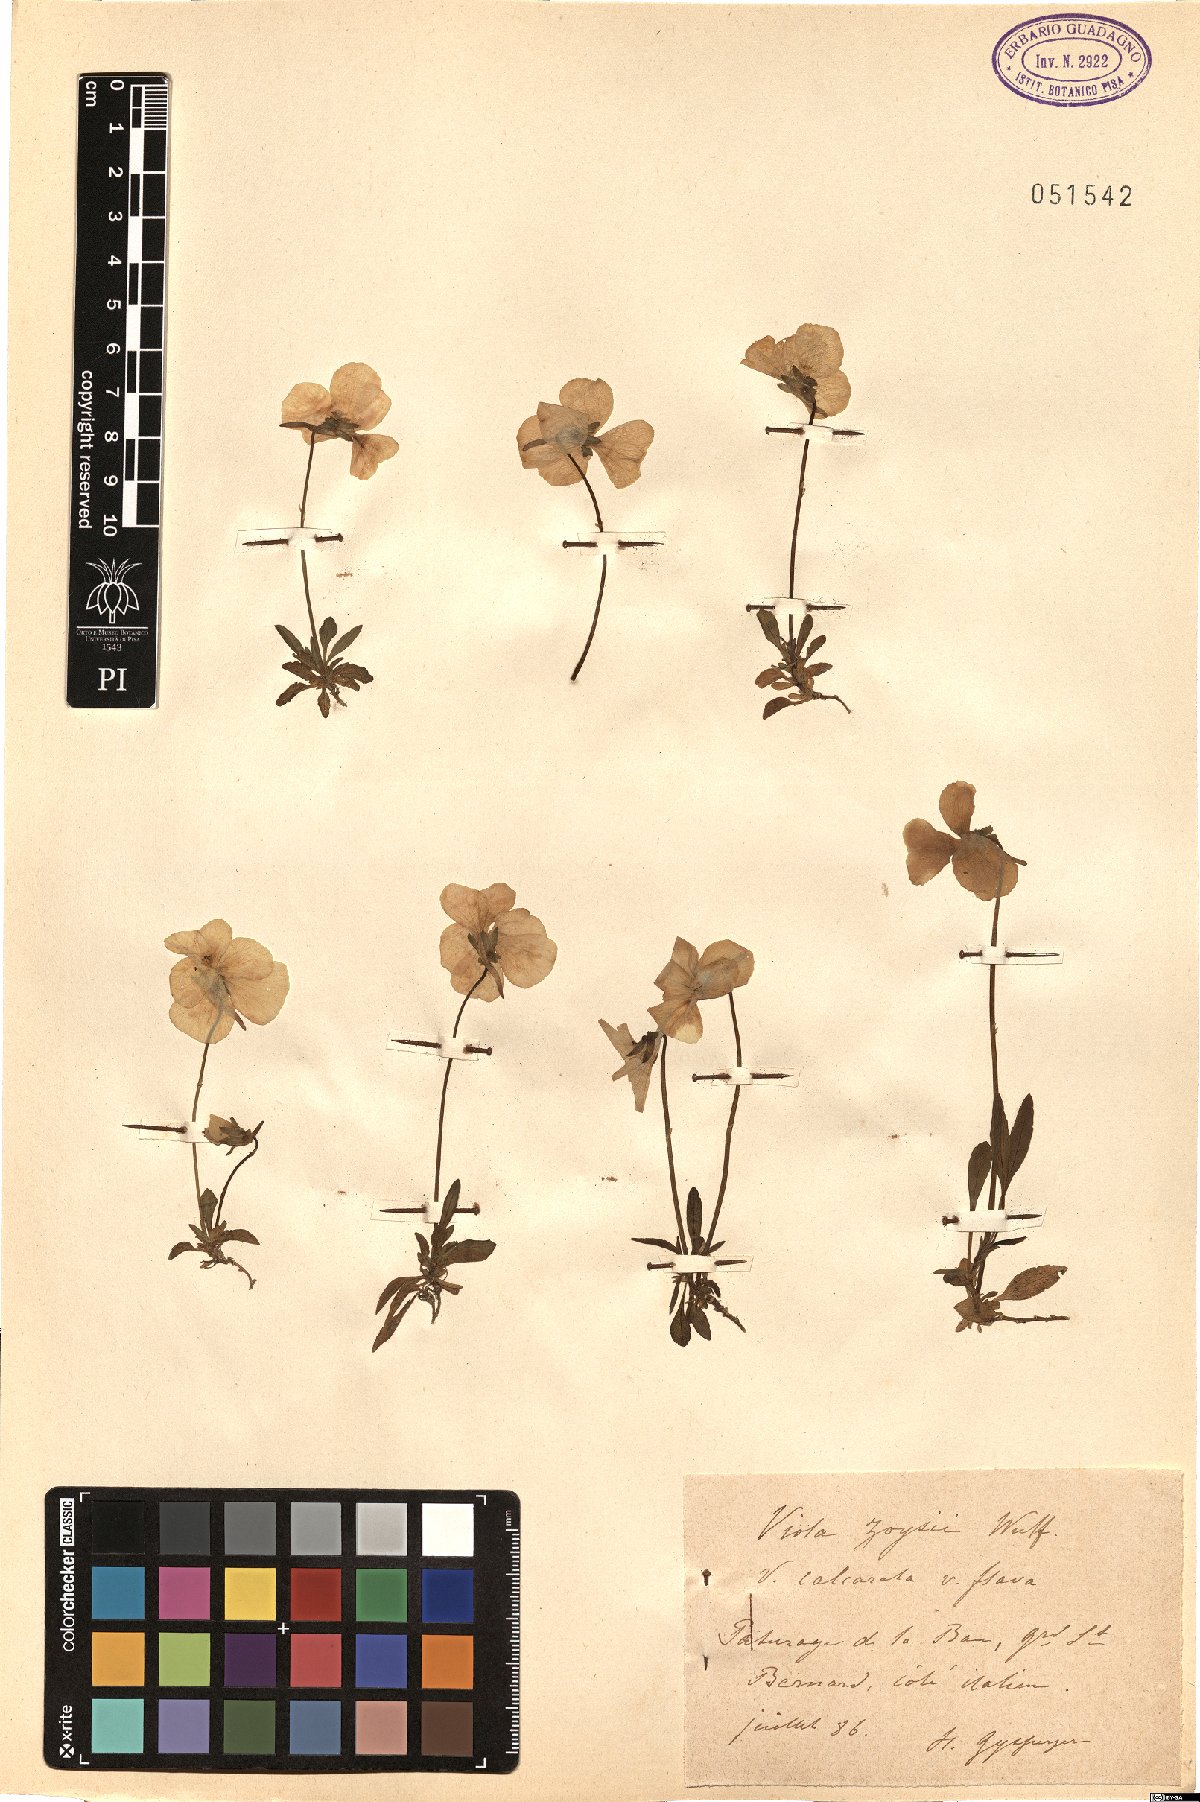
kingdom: Plantae
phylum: Tracheophyta
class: Magnoliopsida
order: Malpighiales
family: Violaceae
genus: Viola
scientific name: Viola calcarata
